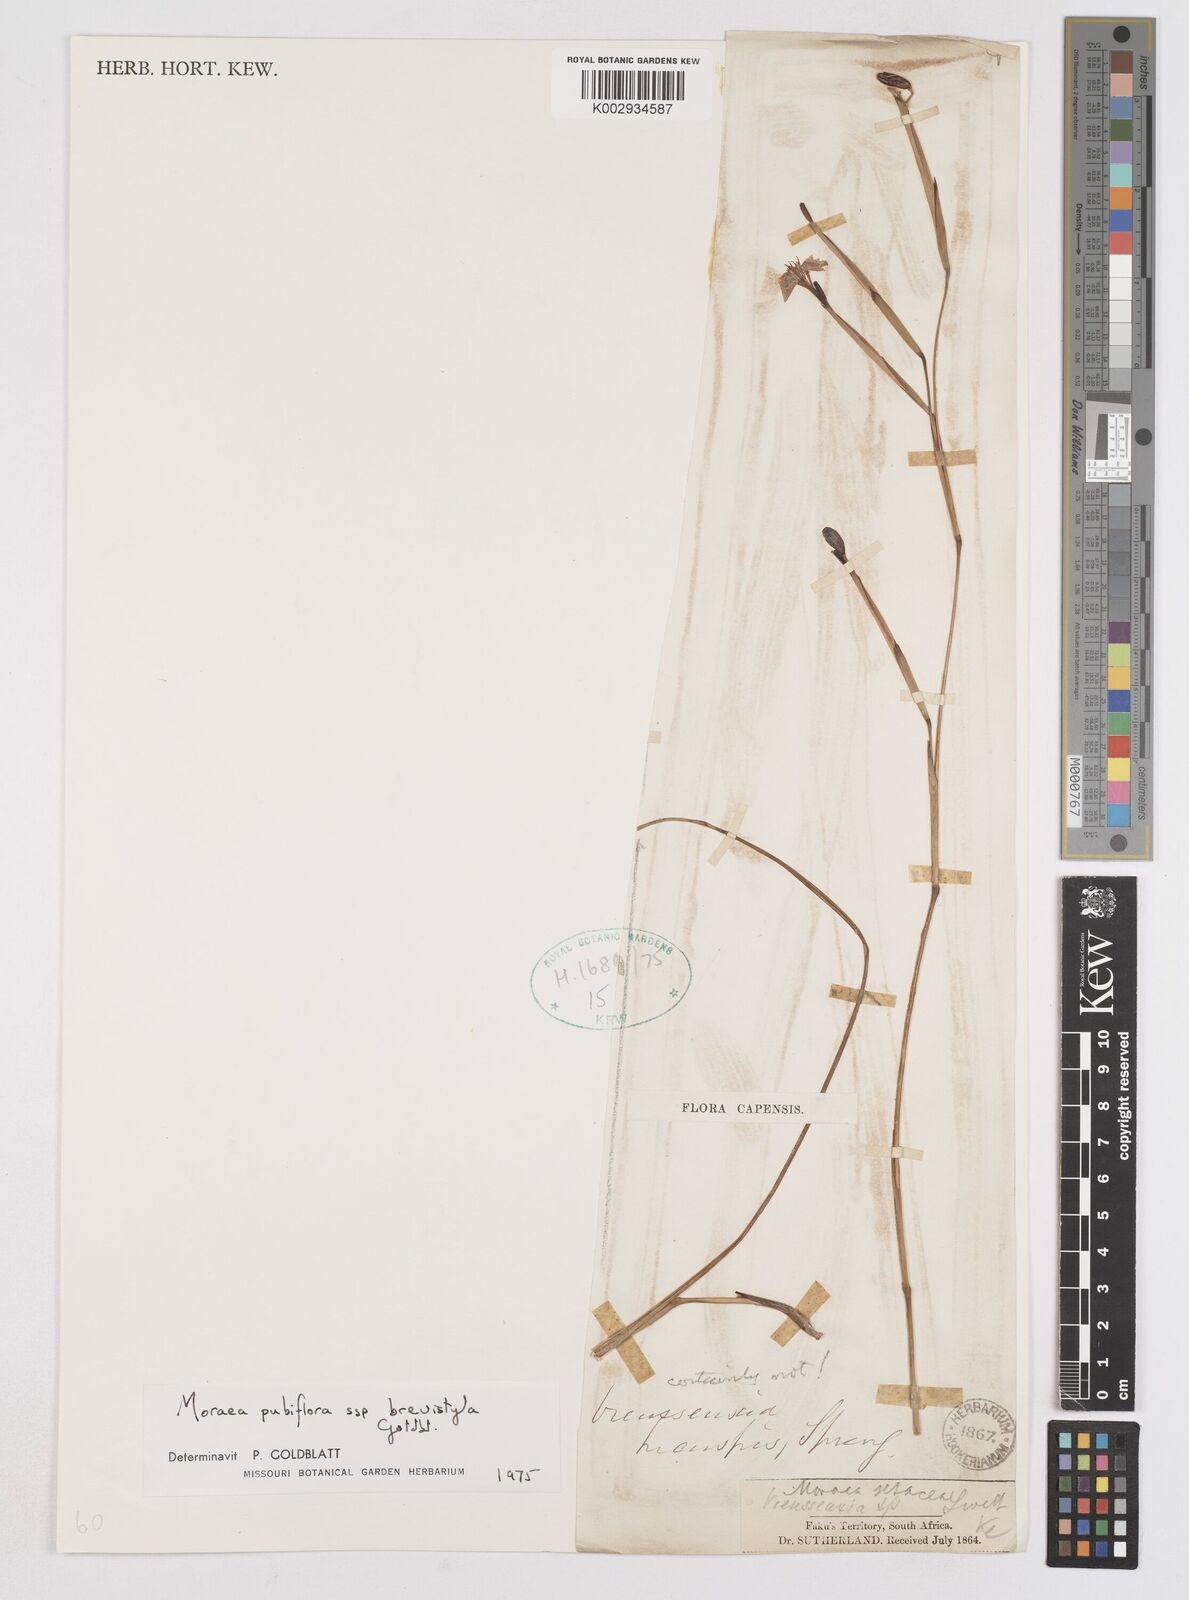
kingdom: Plantae
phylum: Tracheophyta
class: Liliopsida
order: Asparagales
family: Iridaceae
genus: Moraea
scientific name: Moraea brevistyla
